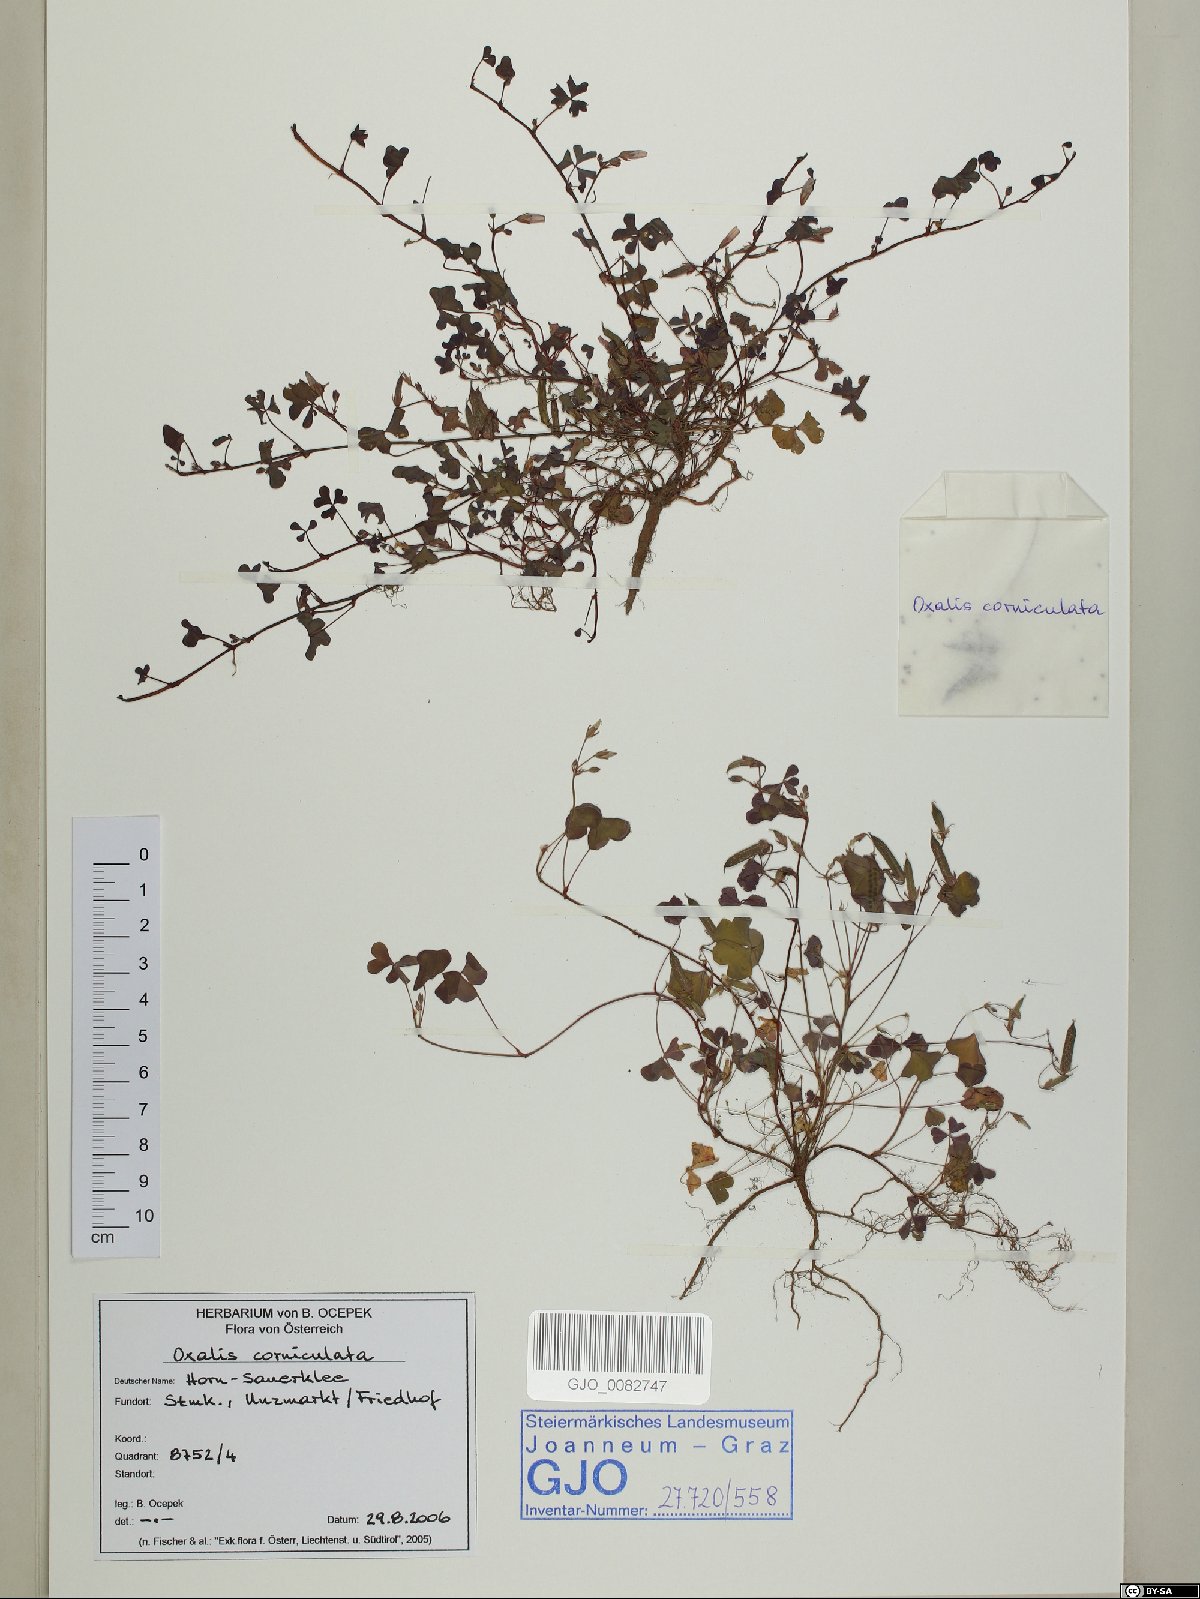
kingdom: Plantae
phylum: Tracheophyta
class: Magnoliopsida
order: Oxalidales
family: Oxalidaceae
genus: Oxalis
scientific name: Oxalis corniculata
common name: Procumbent yellow-sorrel
